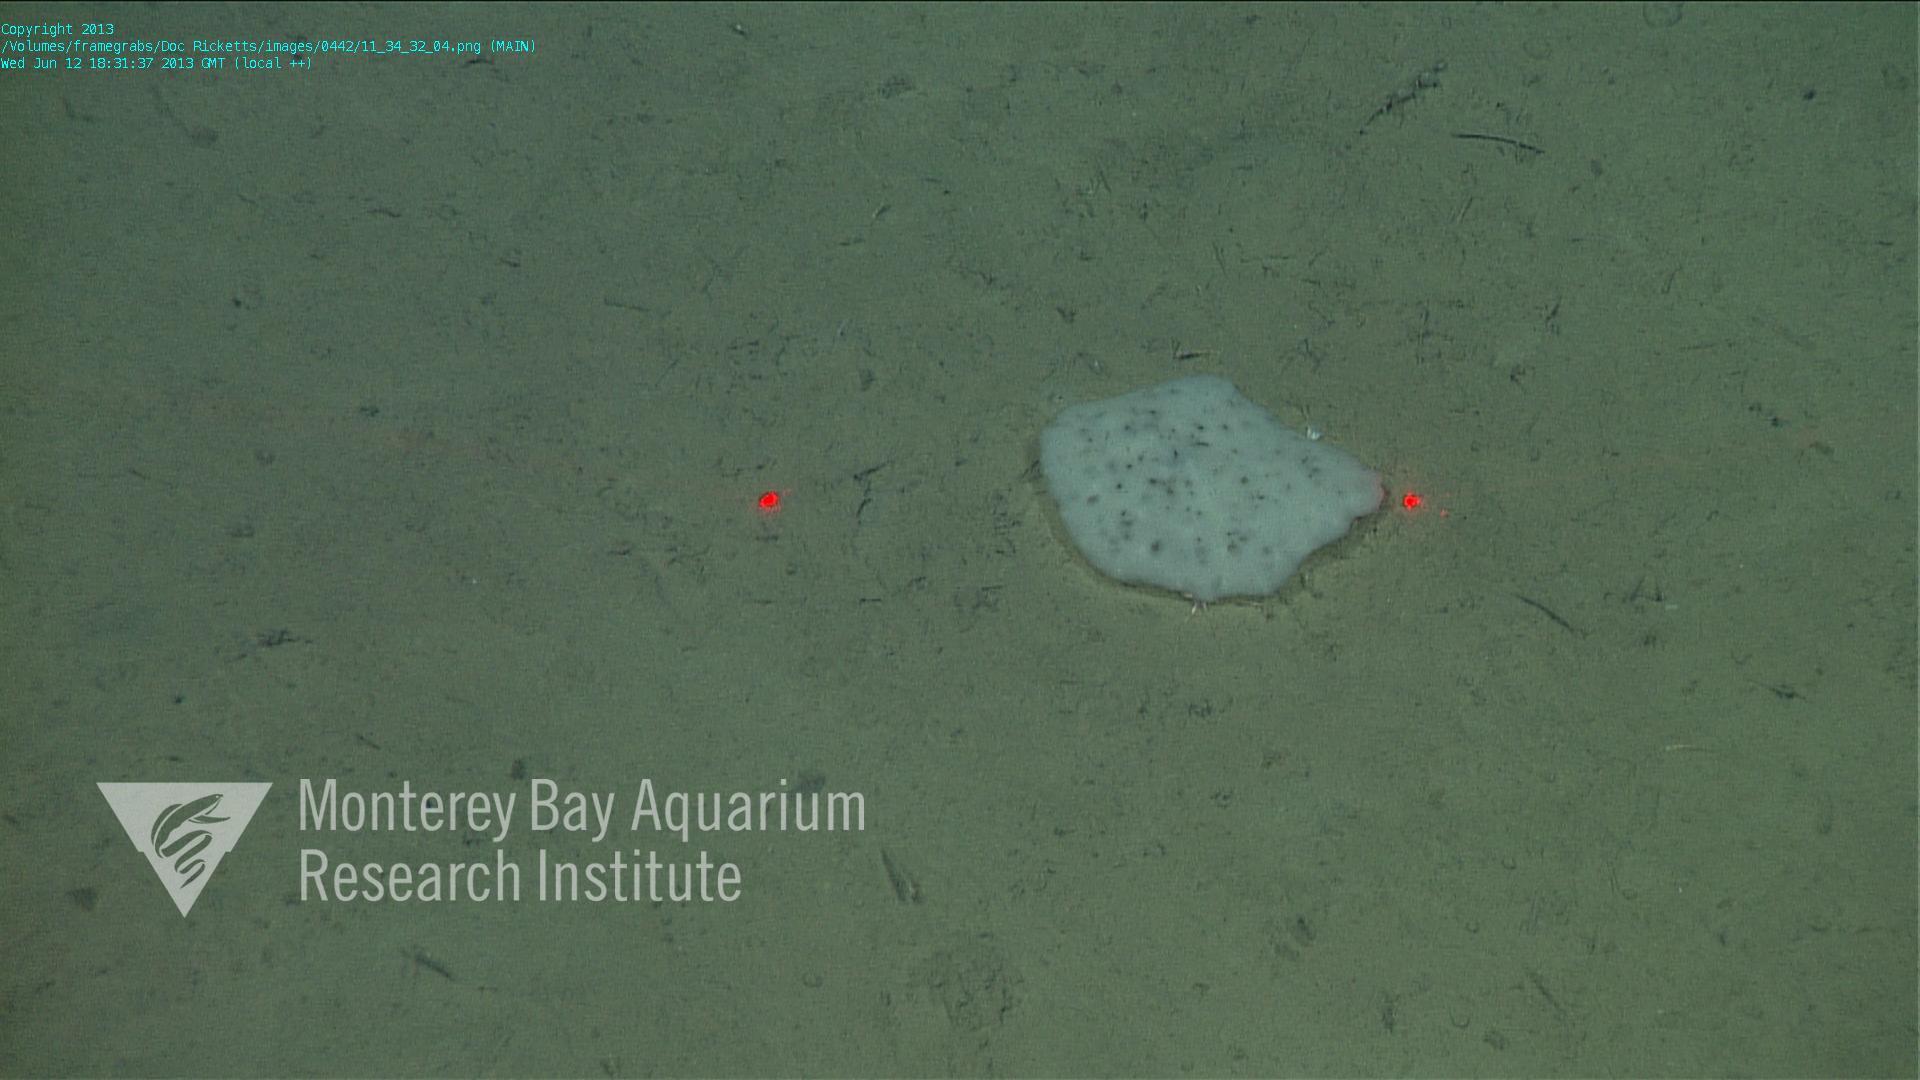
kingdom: Animalia
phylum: Porifera
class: Hexactinellida
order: Lyssacinosida
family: Euplectellidae
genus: Docosaccus
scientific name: Docosaccus maculatus
